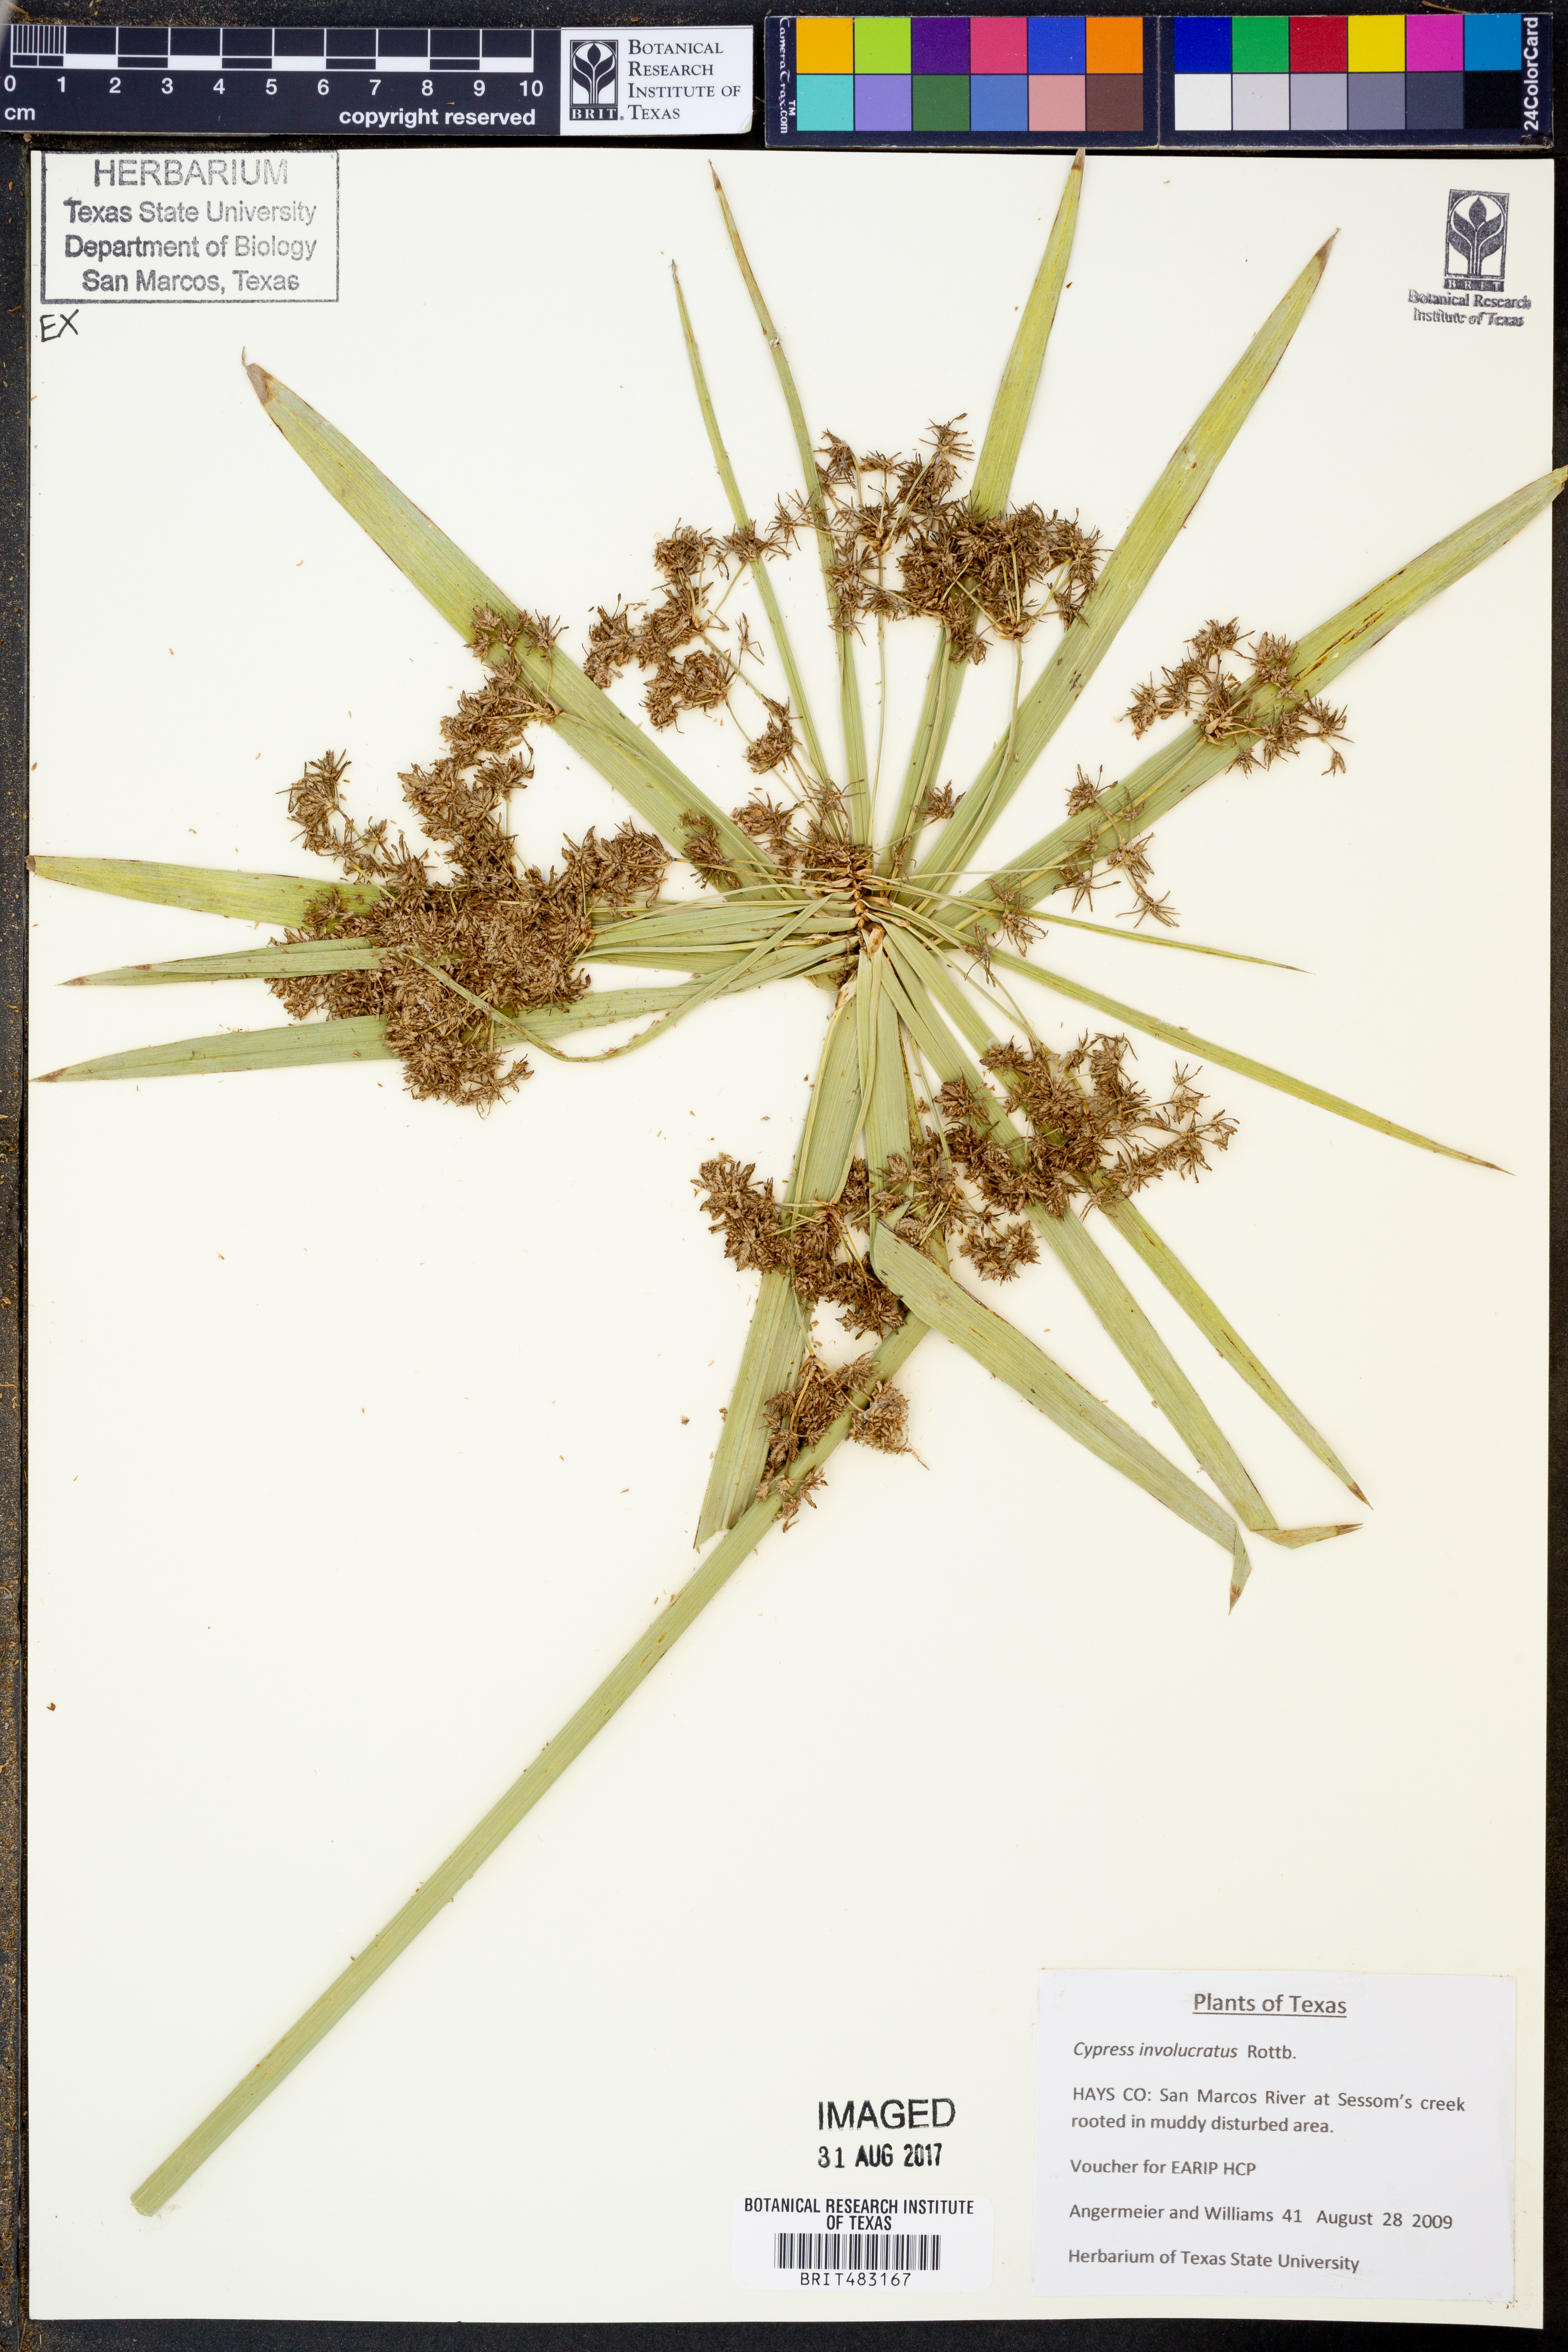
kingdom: Plantae
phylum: Tracheophyta
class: Liliopsida
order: Poales
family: Cyperaceae
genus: Cyperus
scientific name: Cyperus alternifolius
